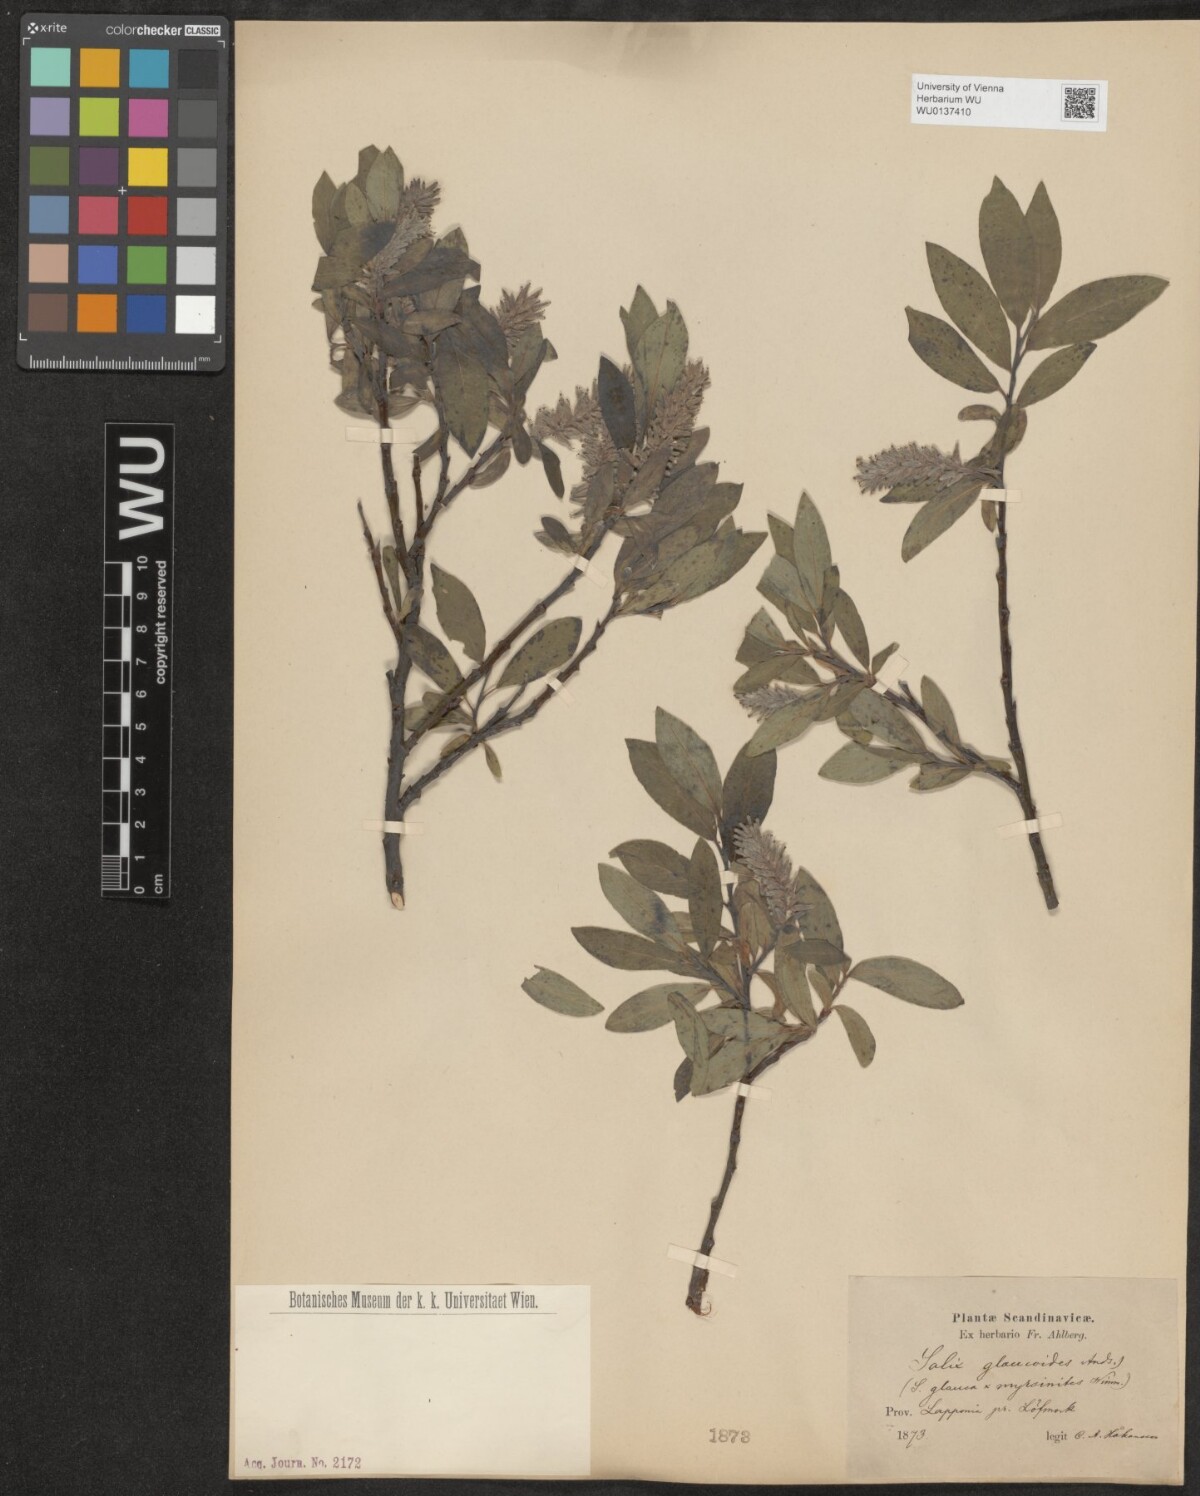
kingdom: Plantae
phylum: Tracheophyta
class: Magnoliopsida
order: Malpighiales
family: Salicaceae
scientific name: Salicaceae
